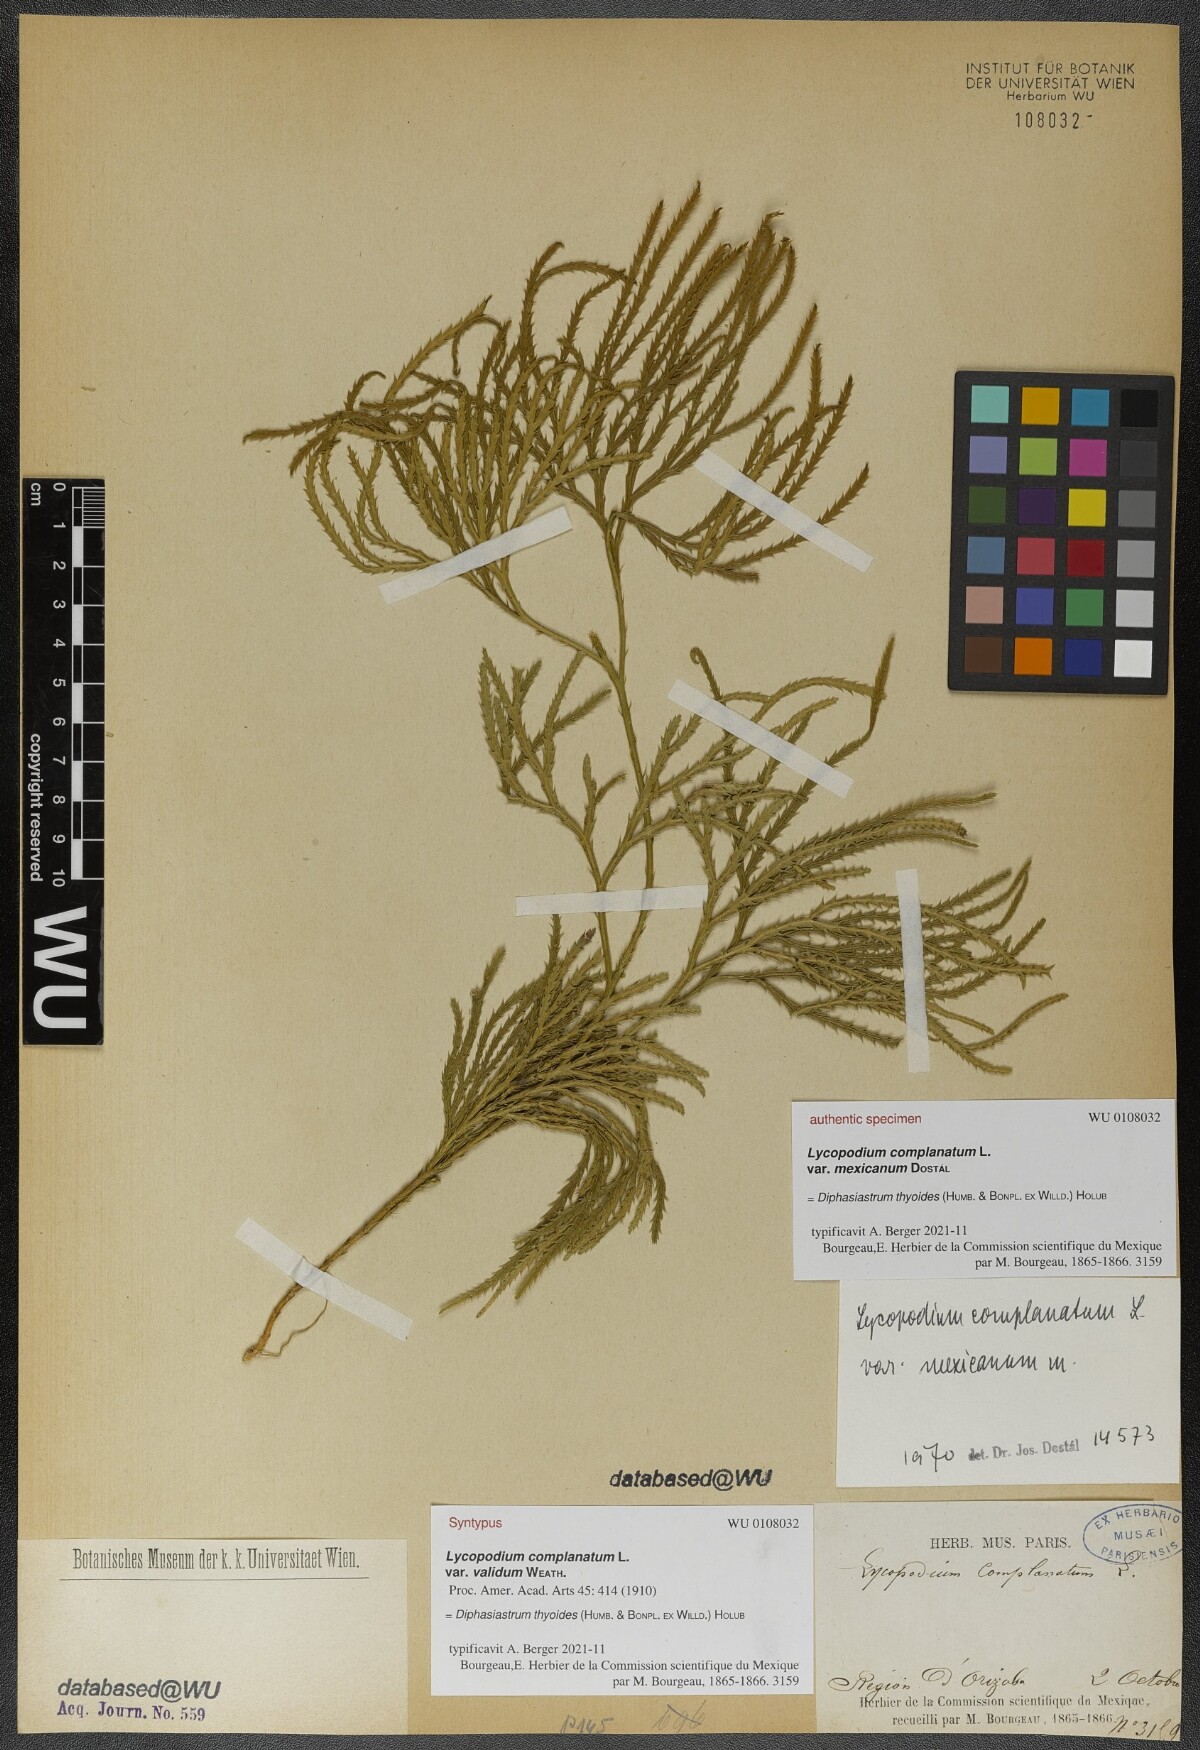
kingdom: Plantae
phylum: Tracheophyta
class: Lycopodiopsida
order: Lycopodiales
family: Lycopodiaceae
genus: Diphasiastrum
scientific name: Diphasiastrum thyoides
